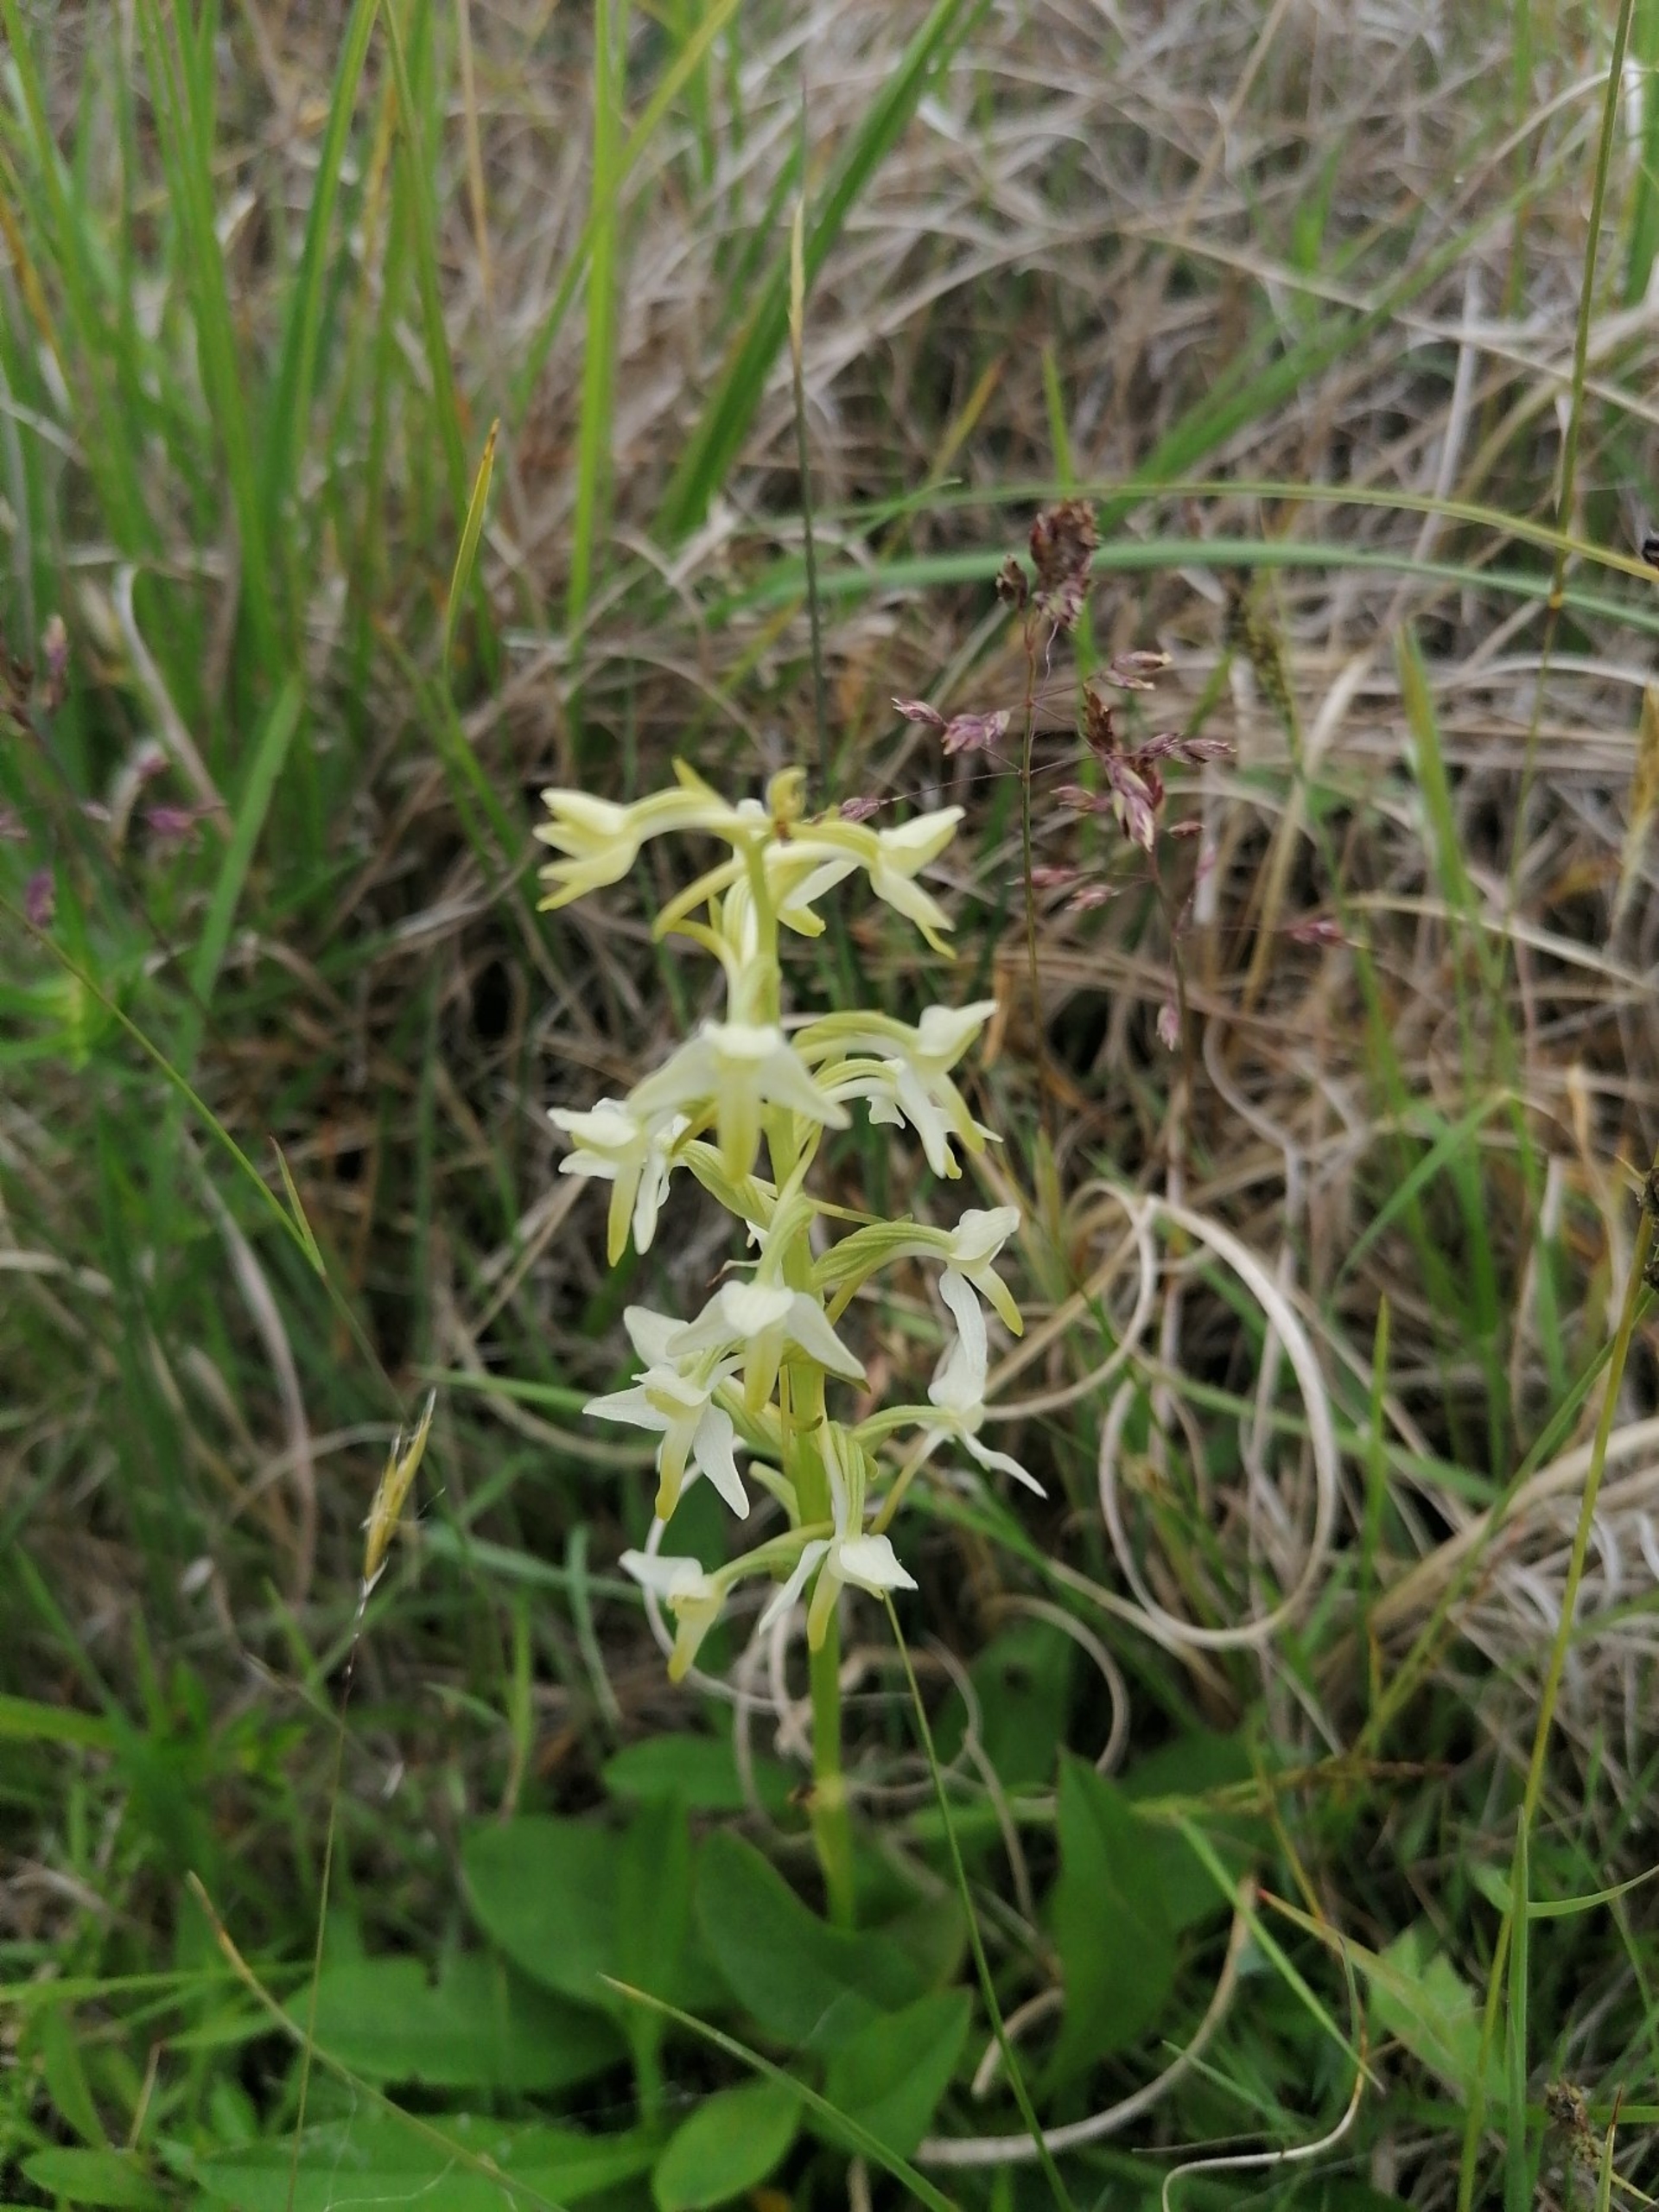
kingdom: Plantae
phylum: Tracheophyta
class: Liliopsida
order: Asparagales
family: Orchidaceae
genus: Platanthera
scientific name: Platanthera bifolia
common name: Bakke-gøgelilje
